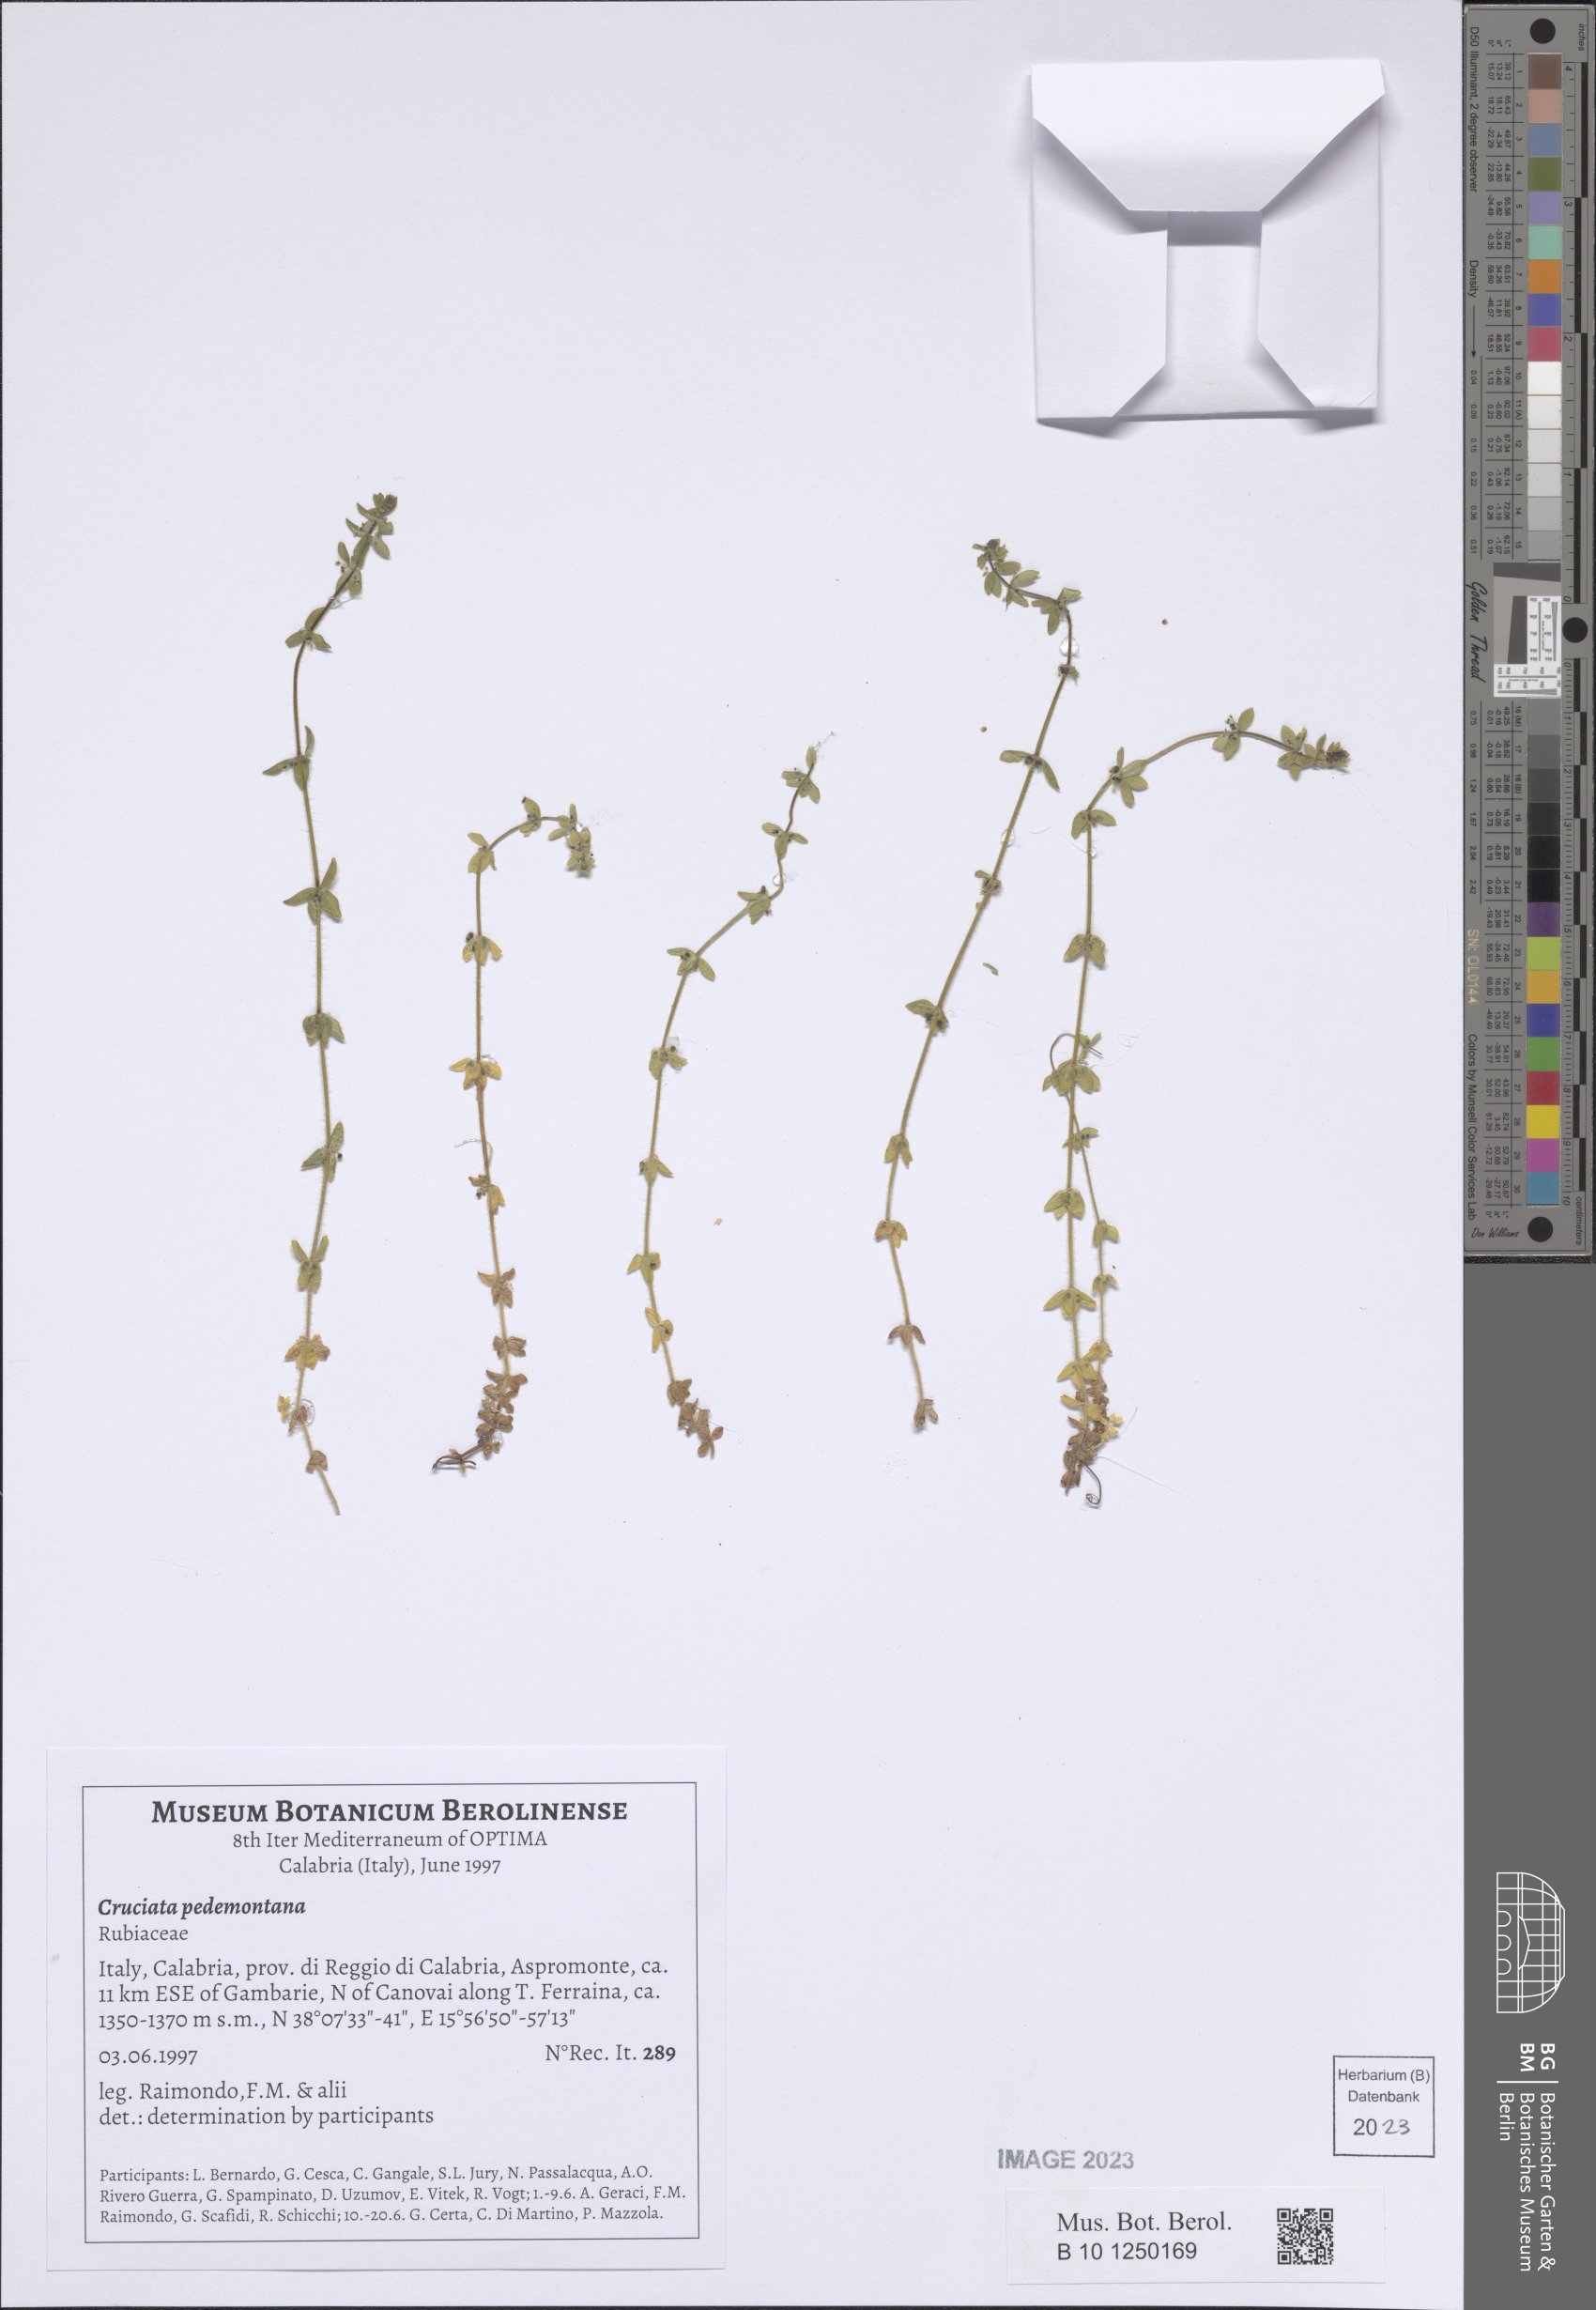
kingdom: Plantae
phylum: Tracheophyta
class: Magnoliopsida
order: Gentianales
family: Rubiaceae
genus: Cruciata
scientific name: Cruciata pedemontana
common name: Piedmont bedstraw
